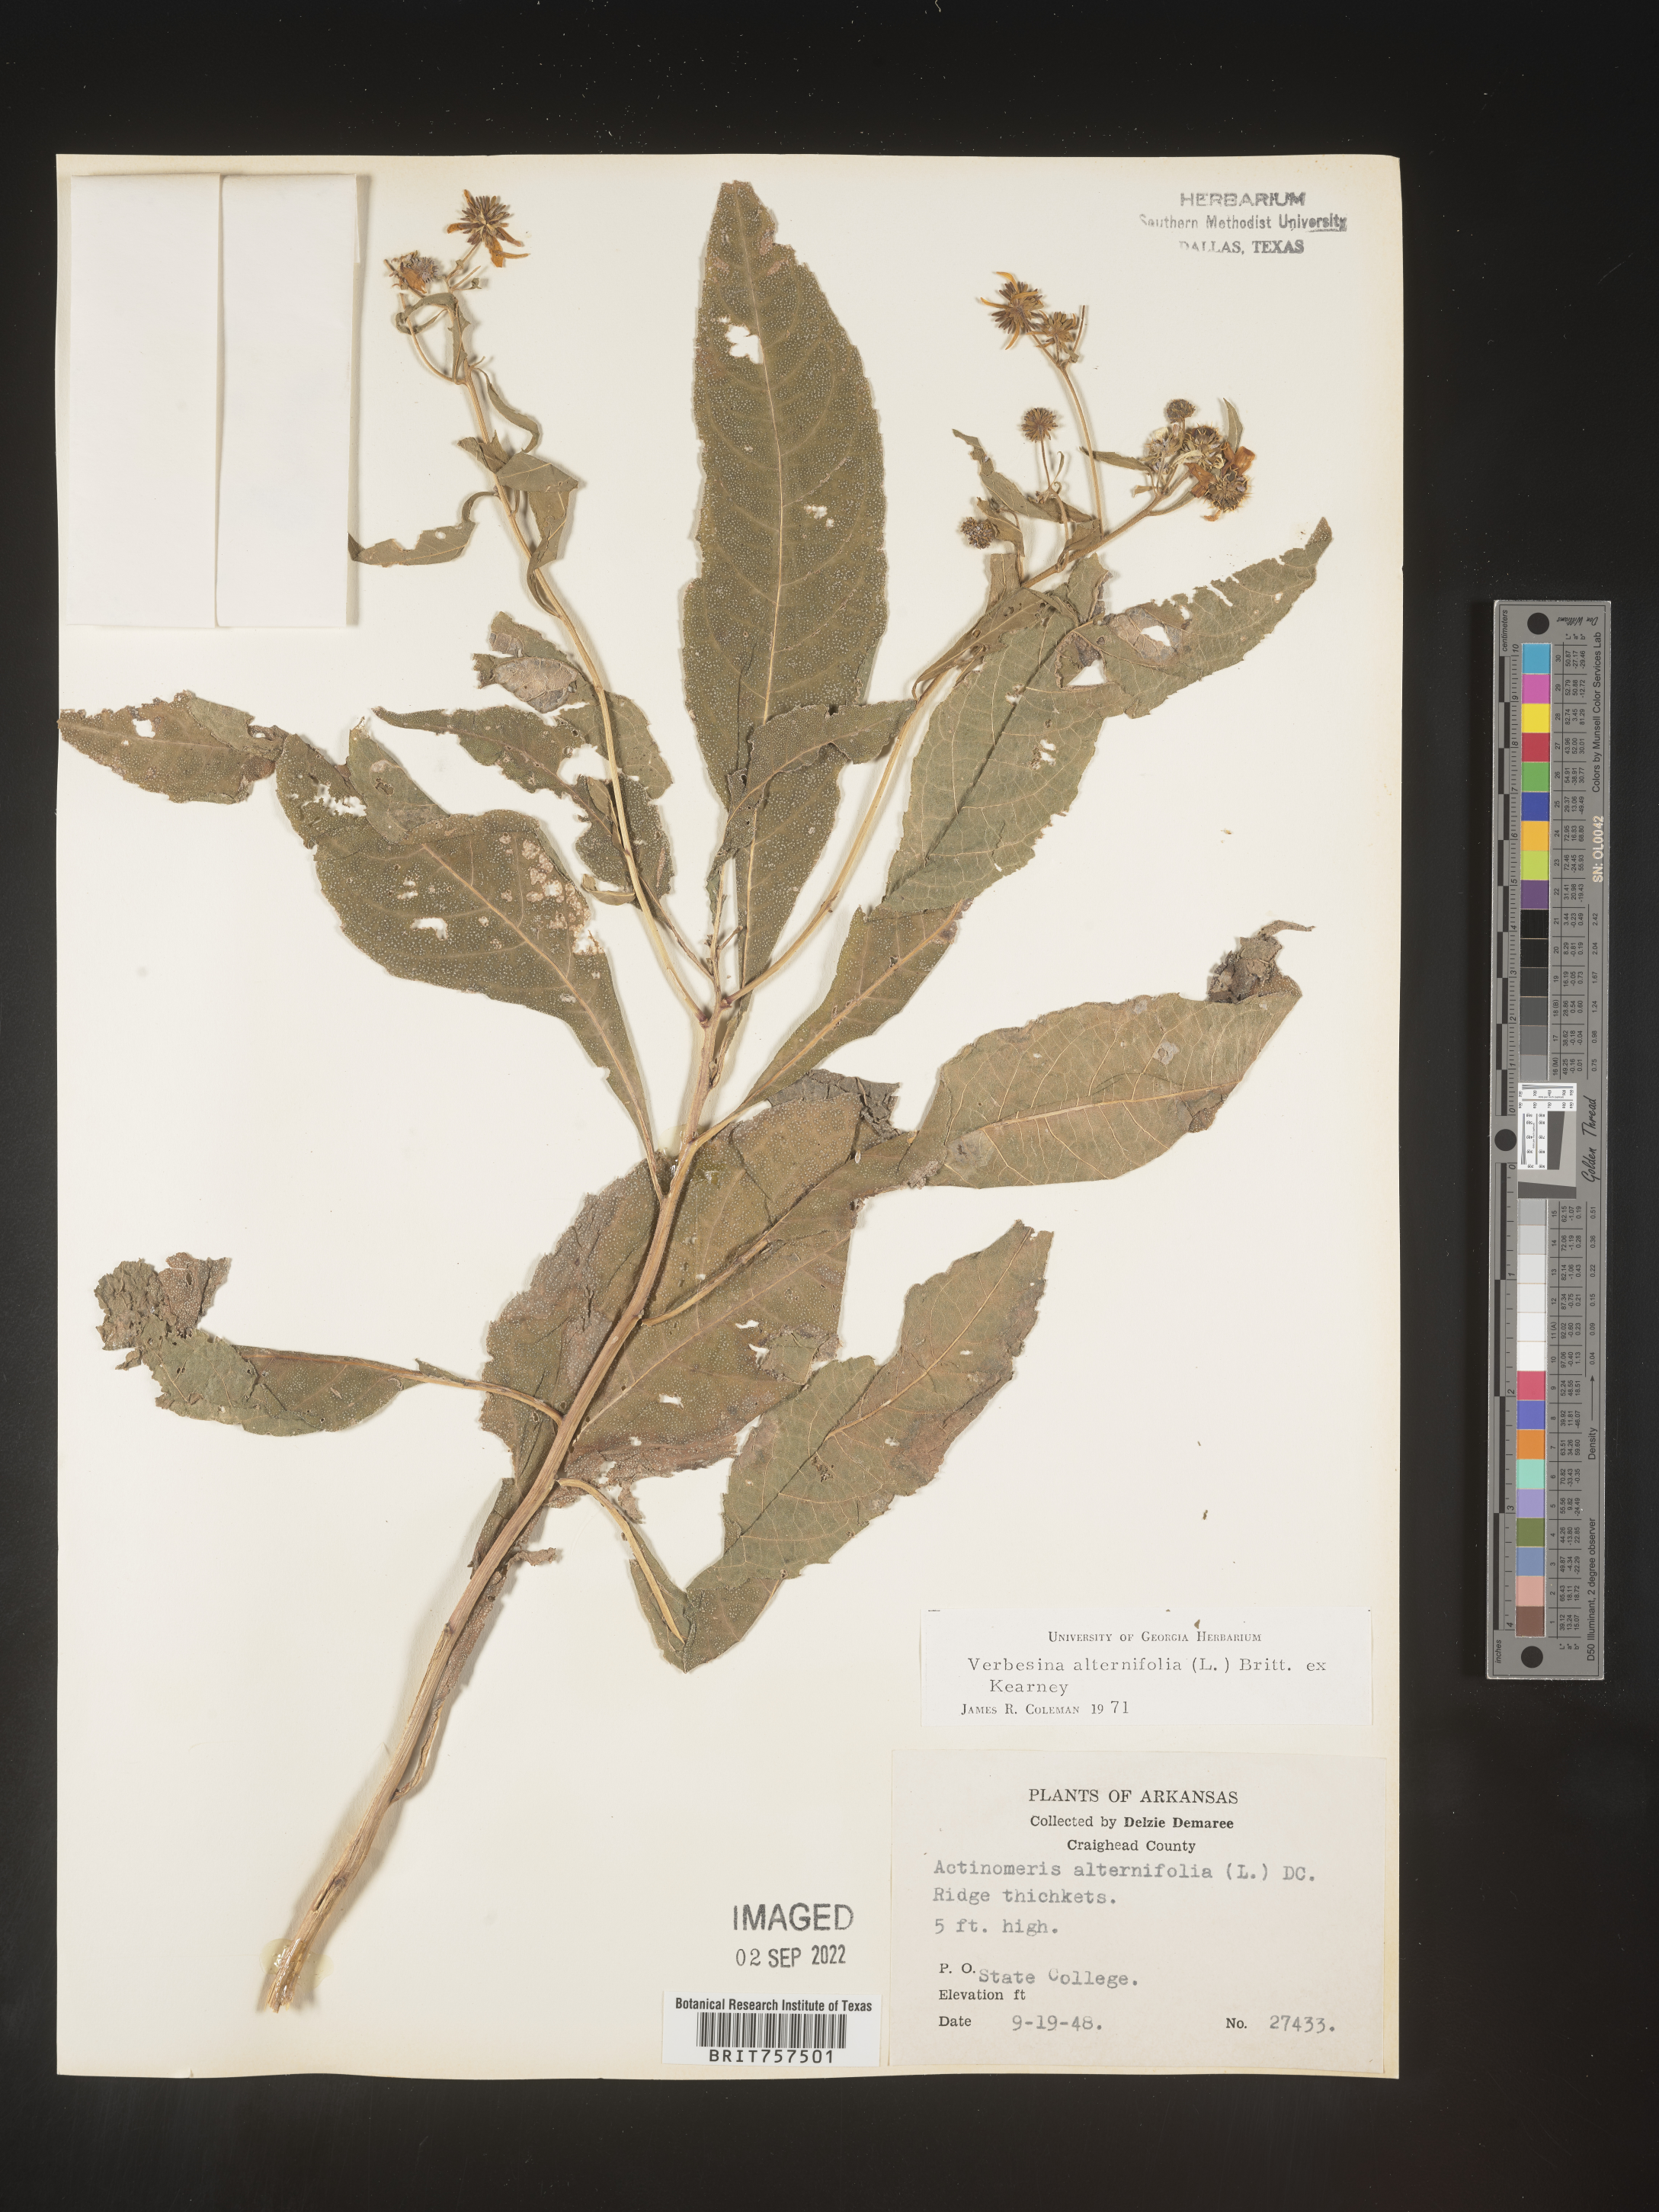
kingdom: Plantae
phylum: Tracheophyta
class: Magnoliopsida
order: Asterales
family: Asteraceae
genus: Verbesina
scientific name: Verbesina alternifolia
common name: Wingstem
